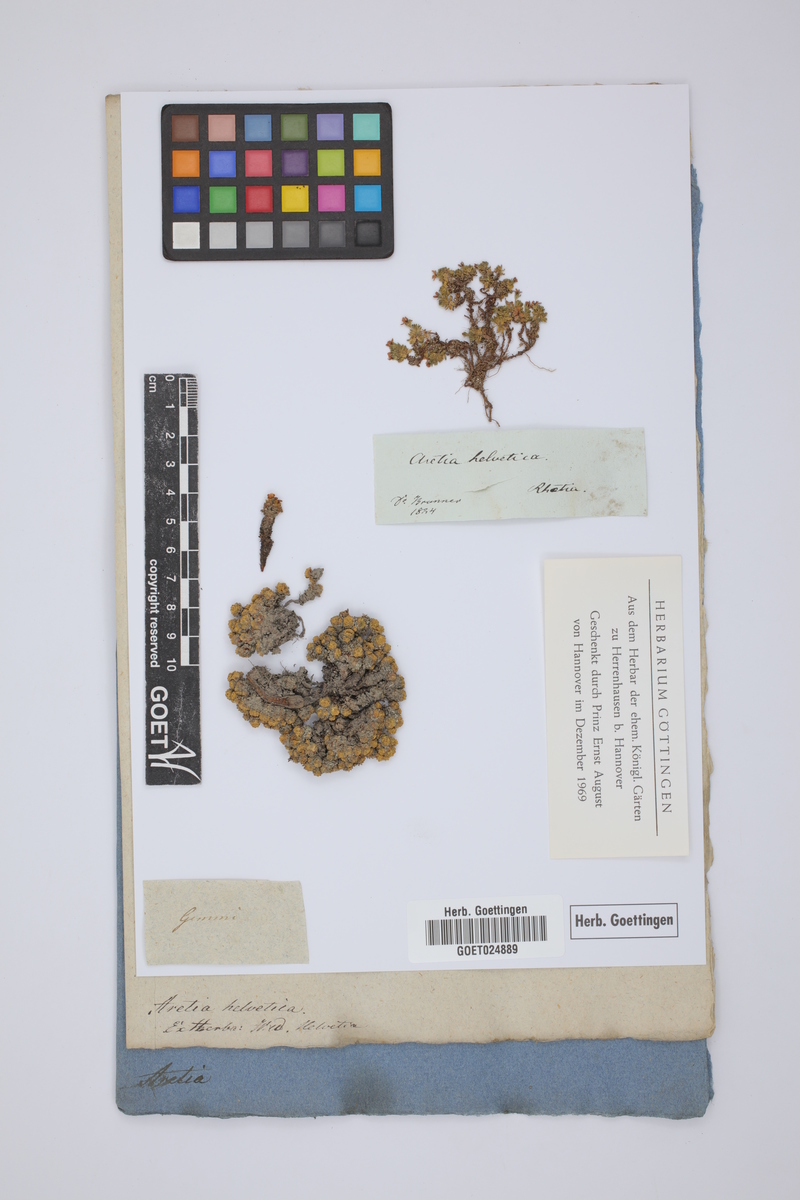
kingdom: Plantae
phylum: Tracheophyta
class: Magnoliopsida
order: Ericales
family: Primulaceae
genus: Androsace
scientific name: Androsace helvetica
